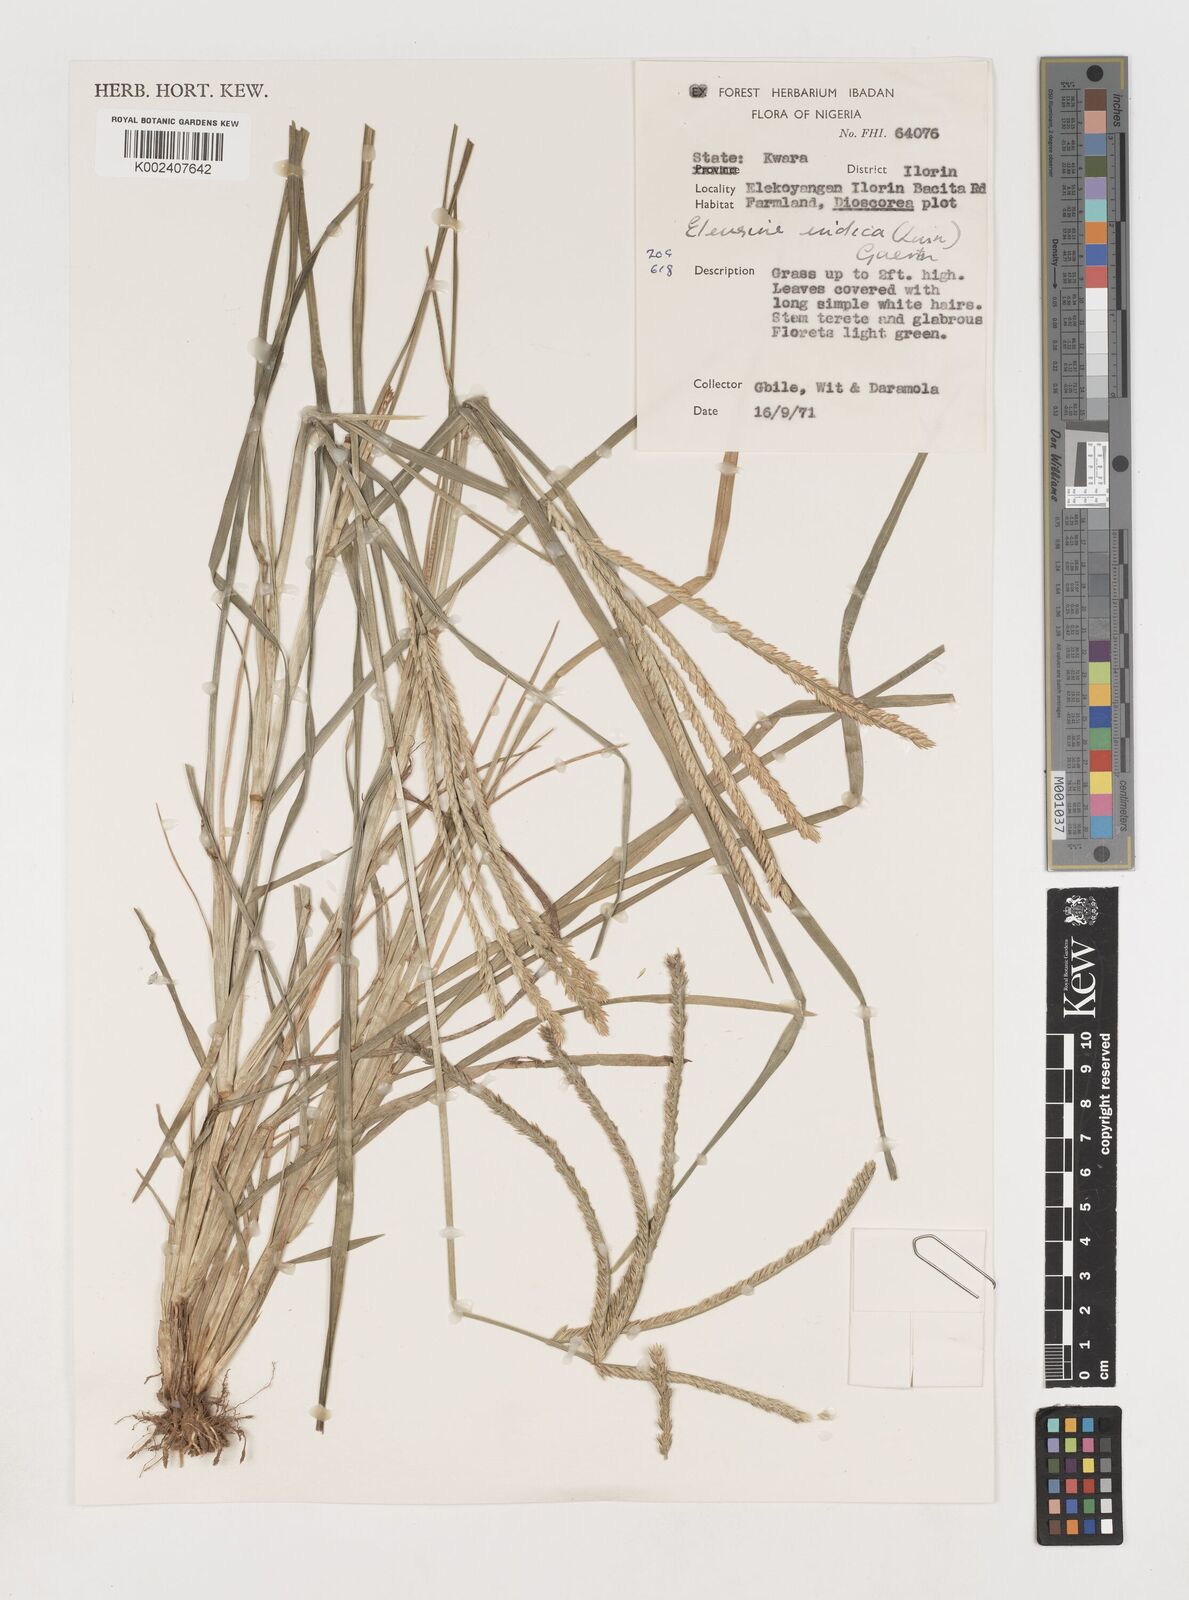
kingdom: Plantae
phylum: Tracheophyta
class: Liliopsida
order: Poales
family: Poaceae
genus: Eleusine
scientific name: Eleusine indica
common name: Yard-grass
